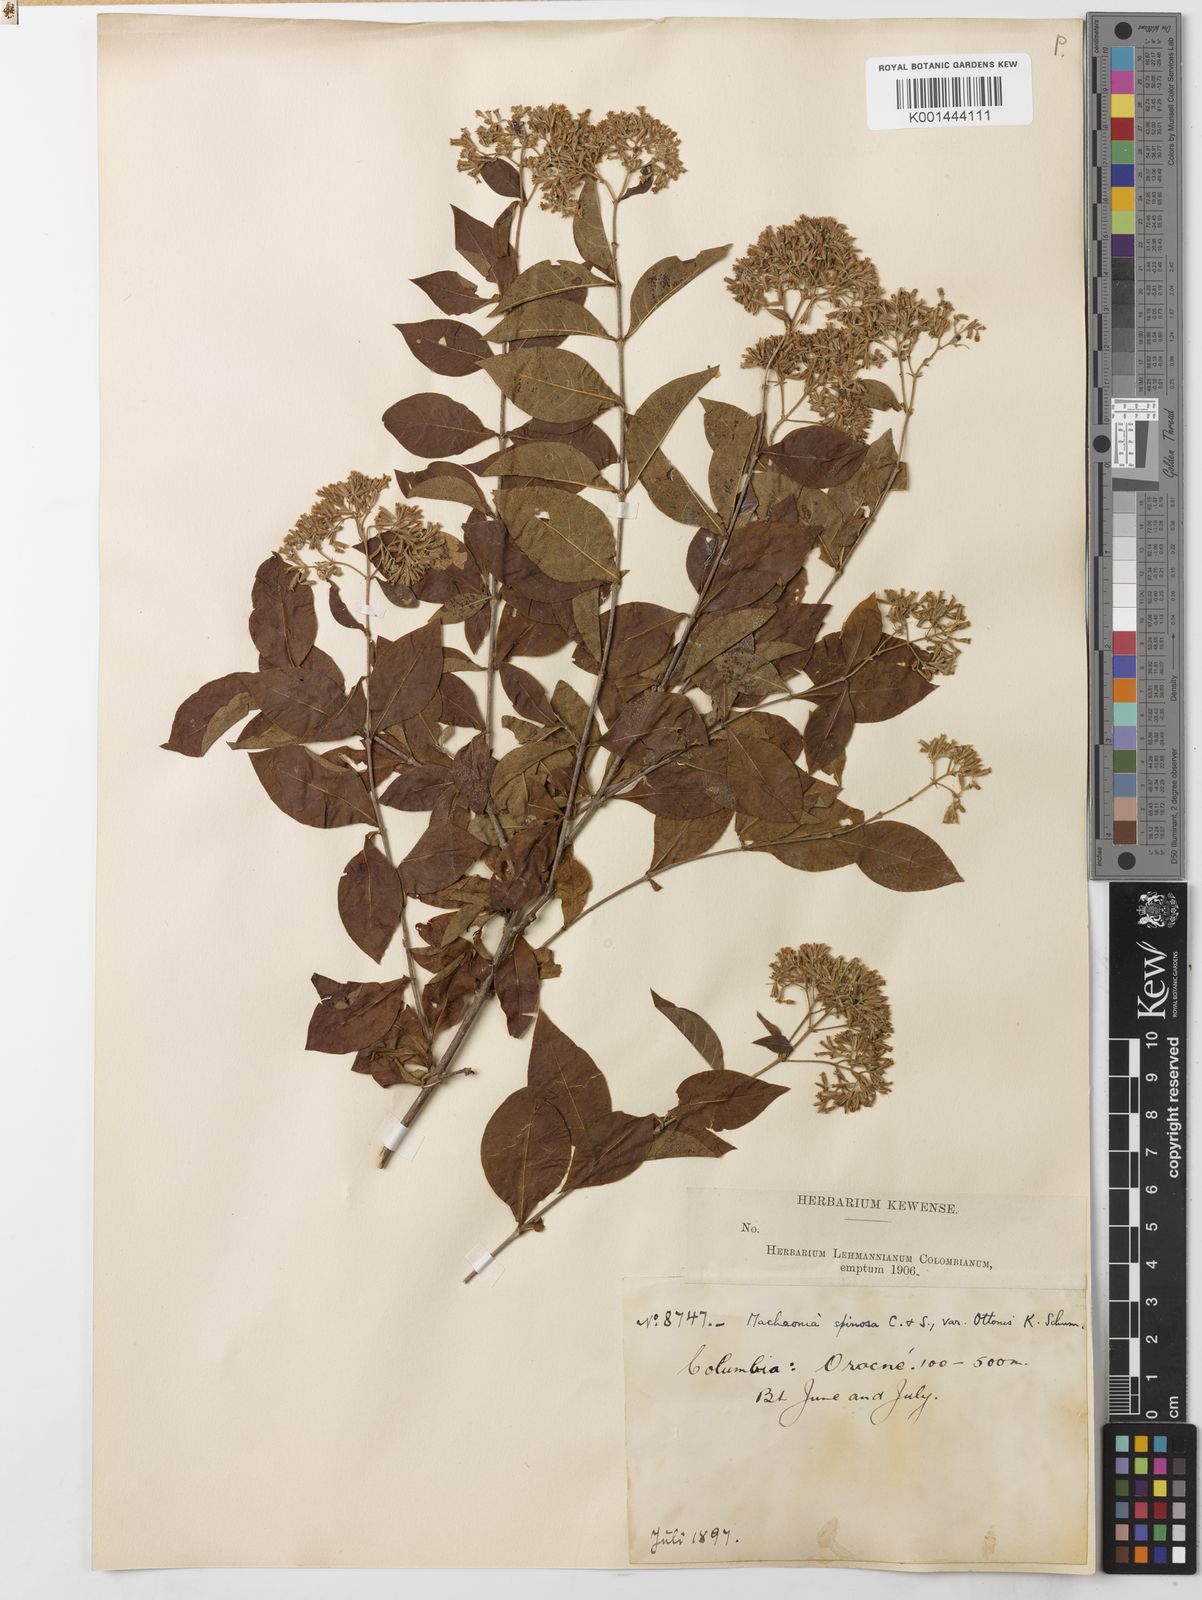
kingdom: Plantae
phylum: Tracheophyta
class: Magnoliopsida
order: Gentianales
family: Rubiaceae
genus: Machaonia
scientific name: Machaonia ottonis
